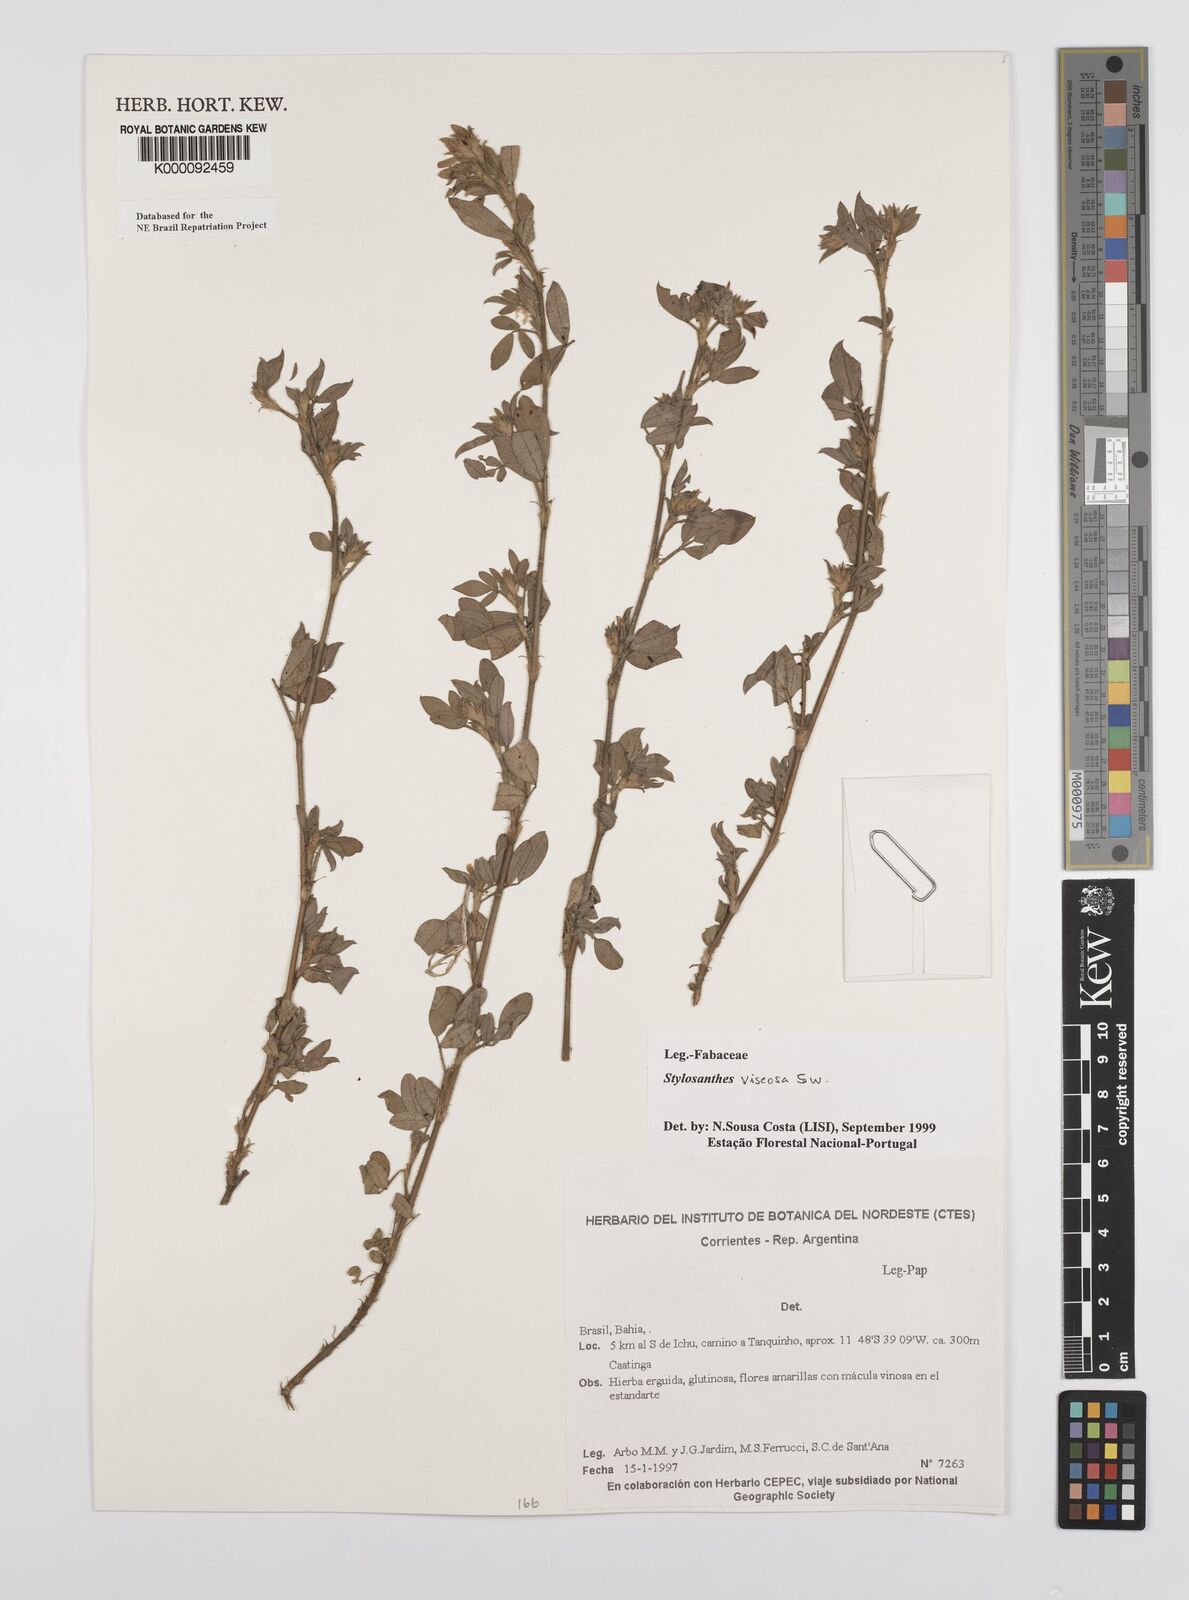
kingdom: Plantae
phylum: Tracheophyta
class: Magnoliopsida
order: Fabales
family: Fabaceae
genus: Stylosanthes
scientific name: Stylosanthes viscosa
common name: Viscid pencil-flower
